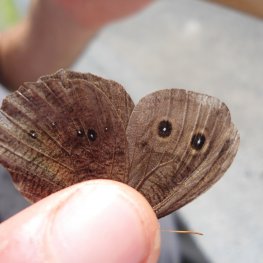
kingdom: Animalia
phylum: Arthropoda
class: Insecta
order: Lepidoptera
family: Nymphalidae
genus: Cercyonis
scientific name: Cercyonis pegala
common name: Common Wood-Nymph
